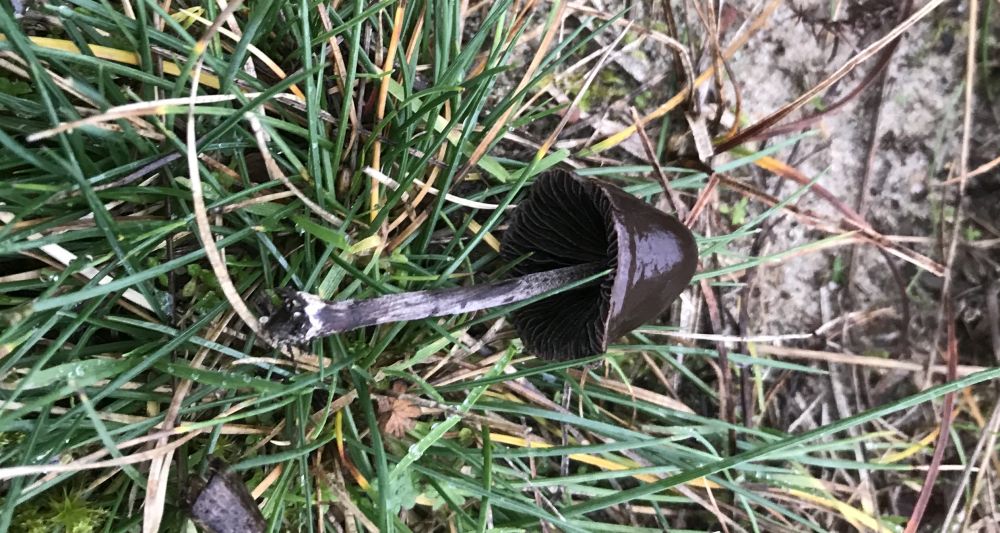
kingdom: Fungi
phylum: Basidiomycota
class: Agaricomycetes
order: Agaricales
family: Bolbitiaceae
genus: Panaeolus
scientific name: Panaeolus
